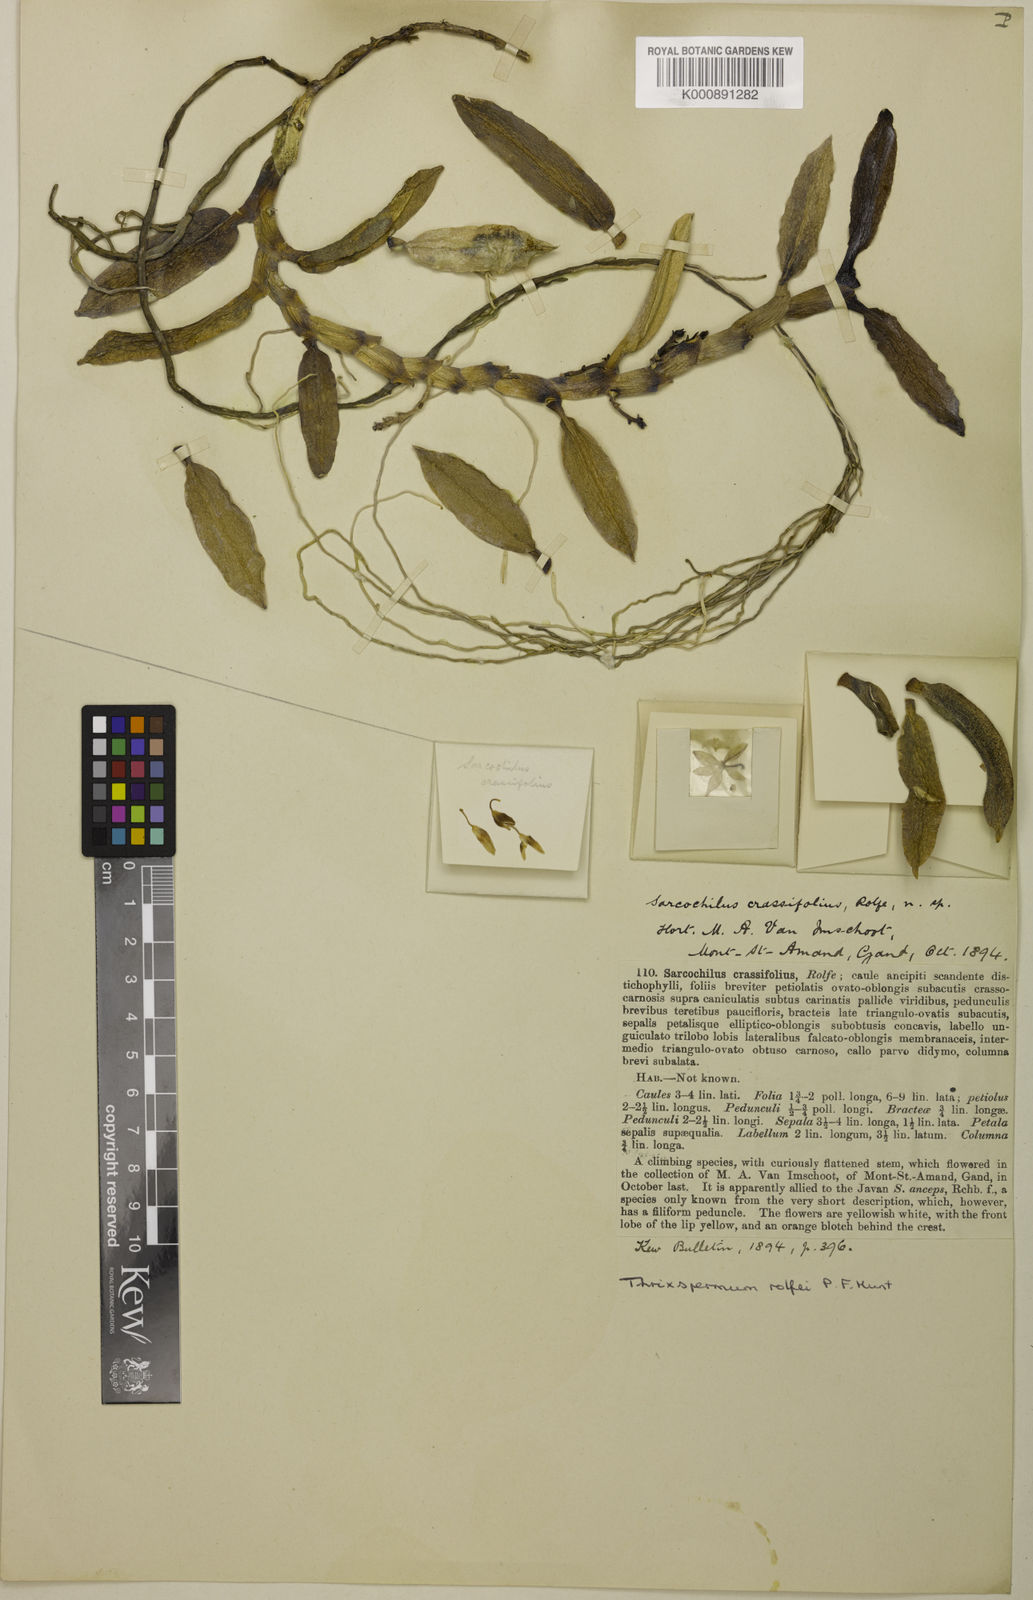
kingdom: Plantae
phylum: Tracheophyta
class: Liliopsida
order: Asparagales
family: Orchidaceae
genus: Thrixspermum
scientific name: Thrixspermum rolfei
